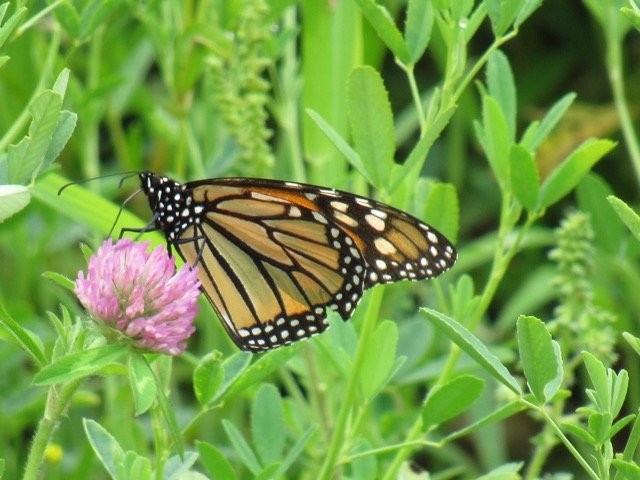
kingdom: Animalia
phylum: Arthropoda
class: Insecta
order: Lepidoptera
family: Nymphalidae
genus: Danaus
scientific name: Danaus plexippus
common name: Monarch
